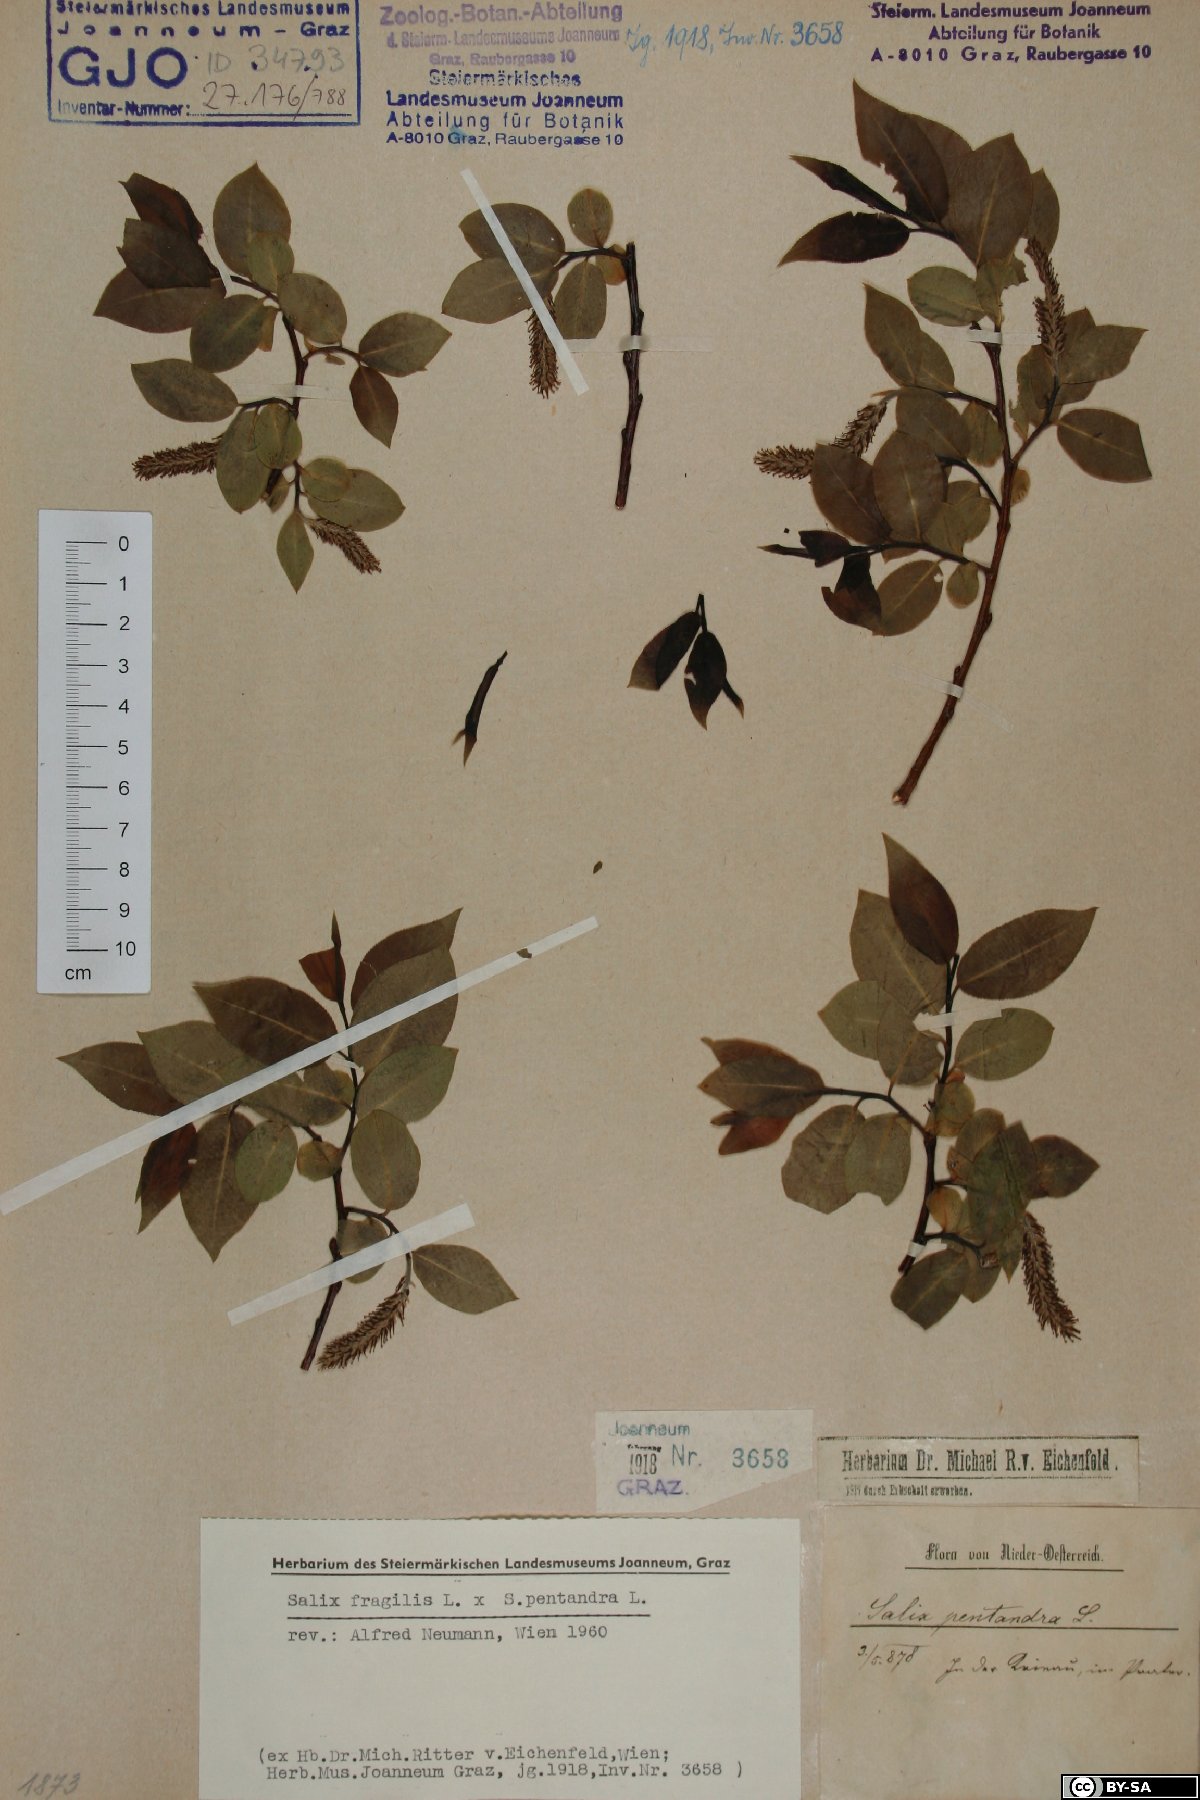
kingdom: Plantae
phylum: Tracheophyta
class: Magnoliopsida
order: Malpighiales
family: Salicaceae
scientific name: Salicaceae
